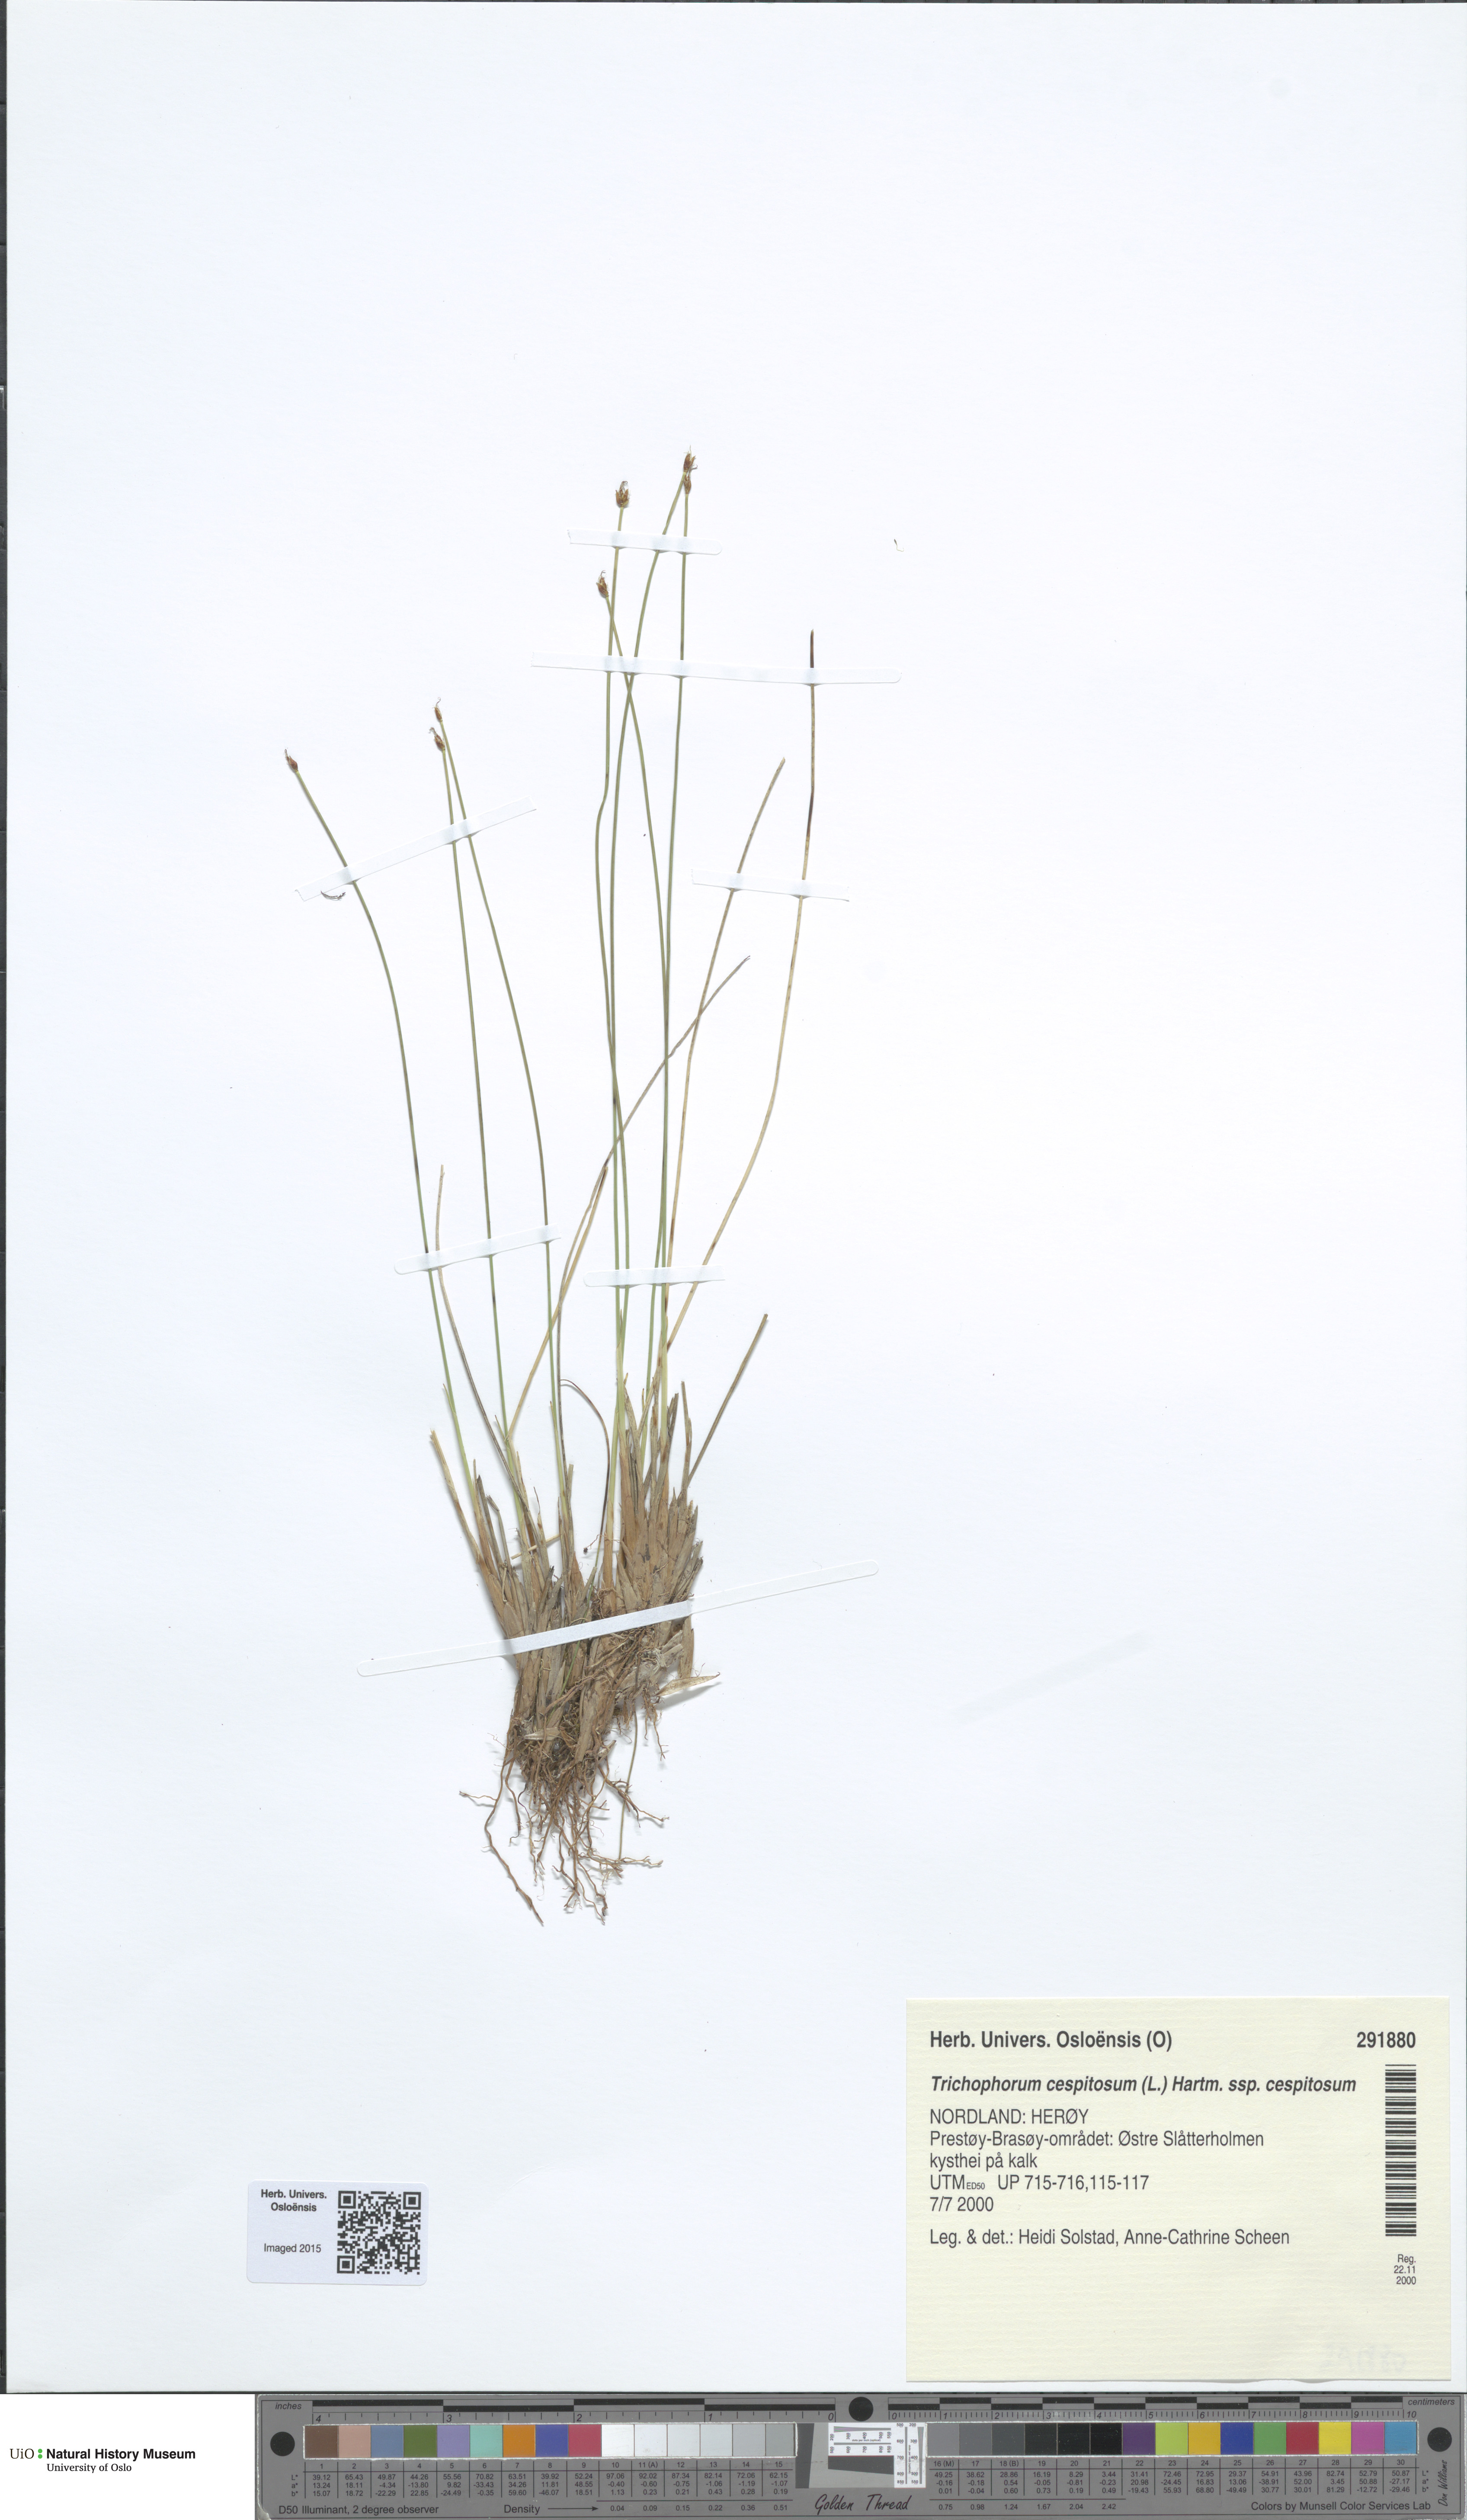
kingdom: Plantae
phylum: Tracheophyta
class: Liliopsida
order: Poales
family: Cyperaceae
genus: Trichophorum
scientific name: Trichophorum cespitosum
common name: Cespitose bulrush
